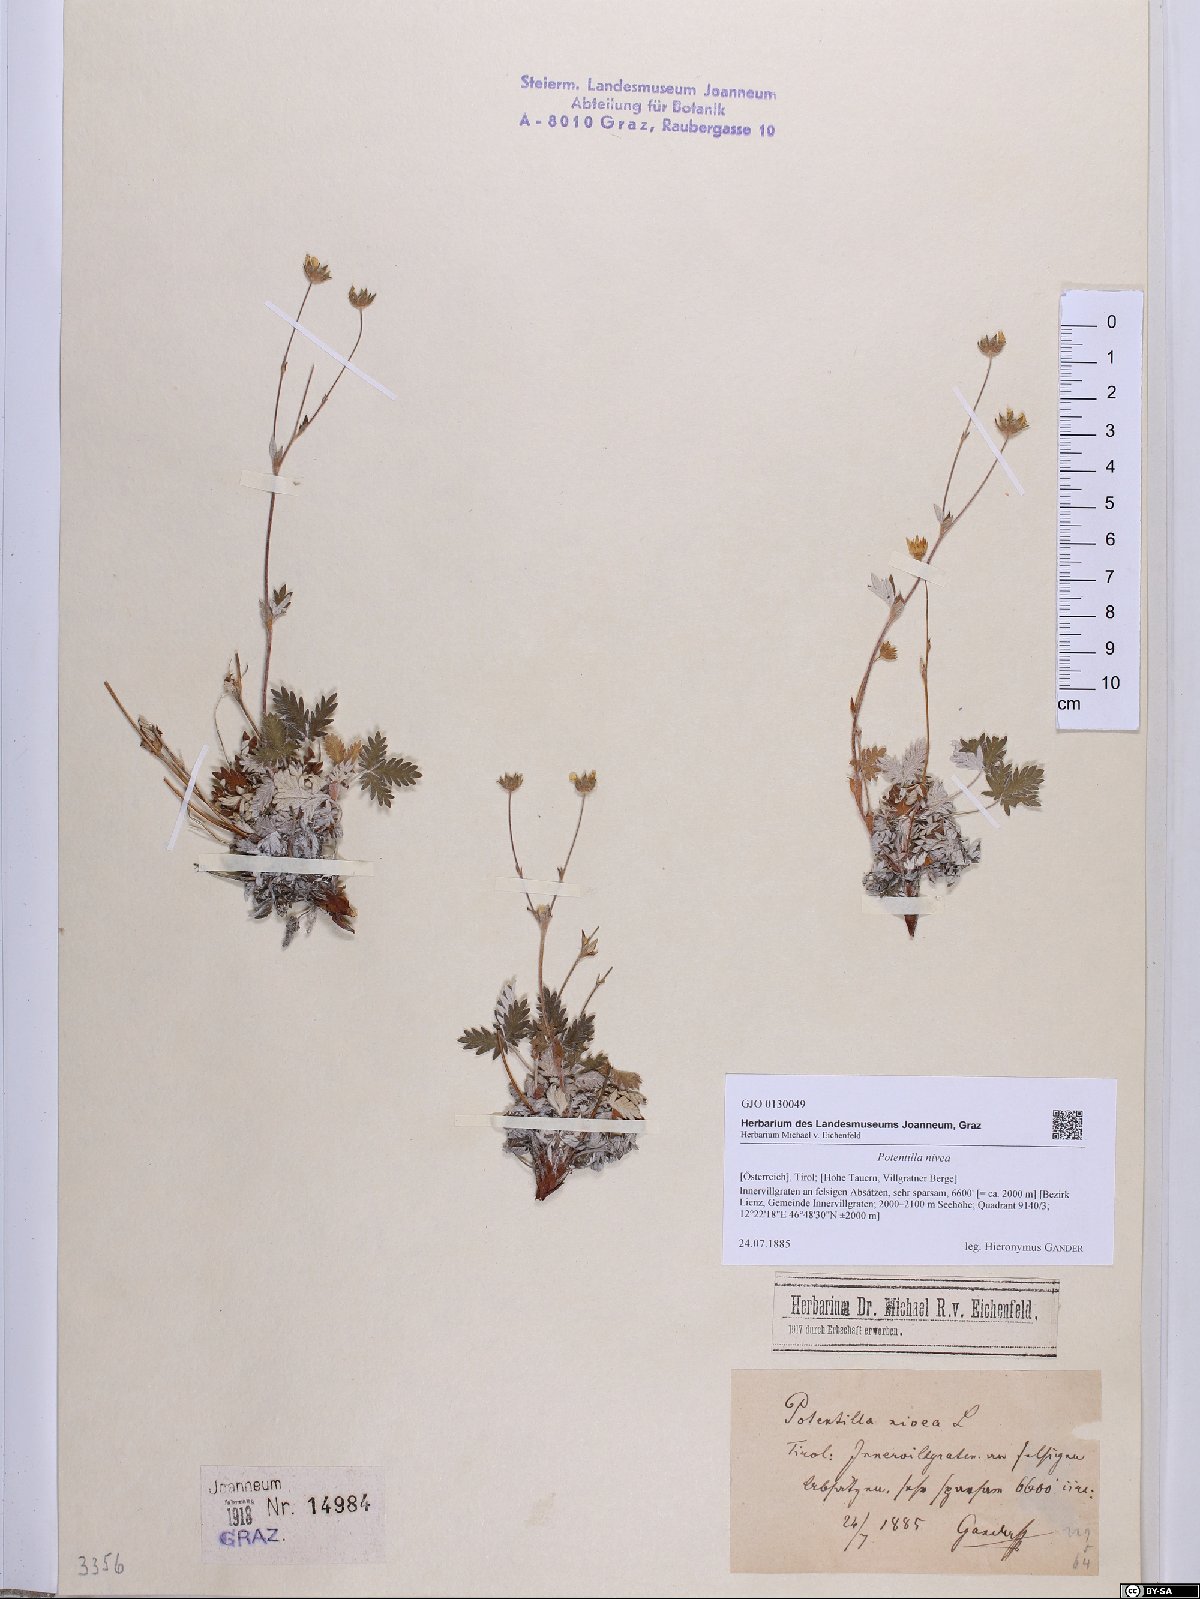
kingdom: Plantae
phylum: Tracheophyta
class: Magnoliopsida
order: Rosales
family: Rosaceae
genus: Potentilla
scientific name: Potentilla nivea
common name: Snow cinquefoil
